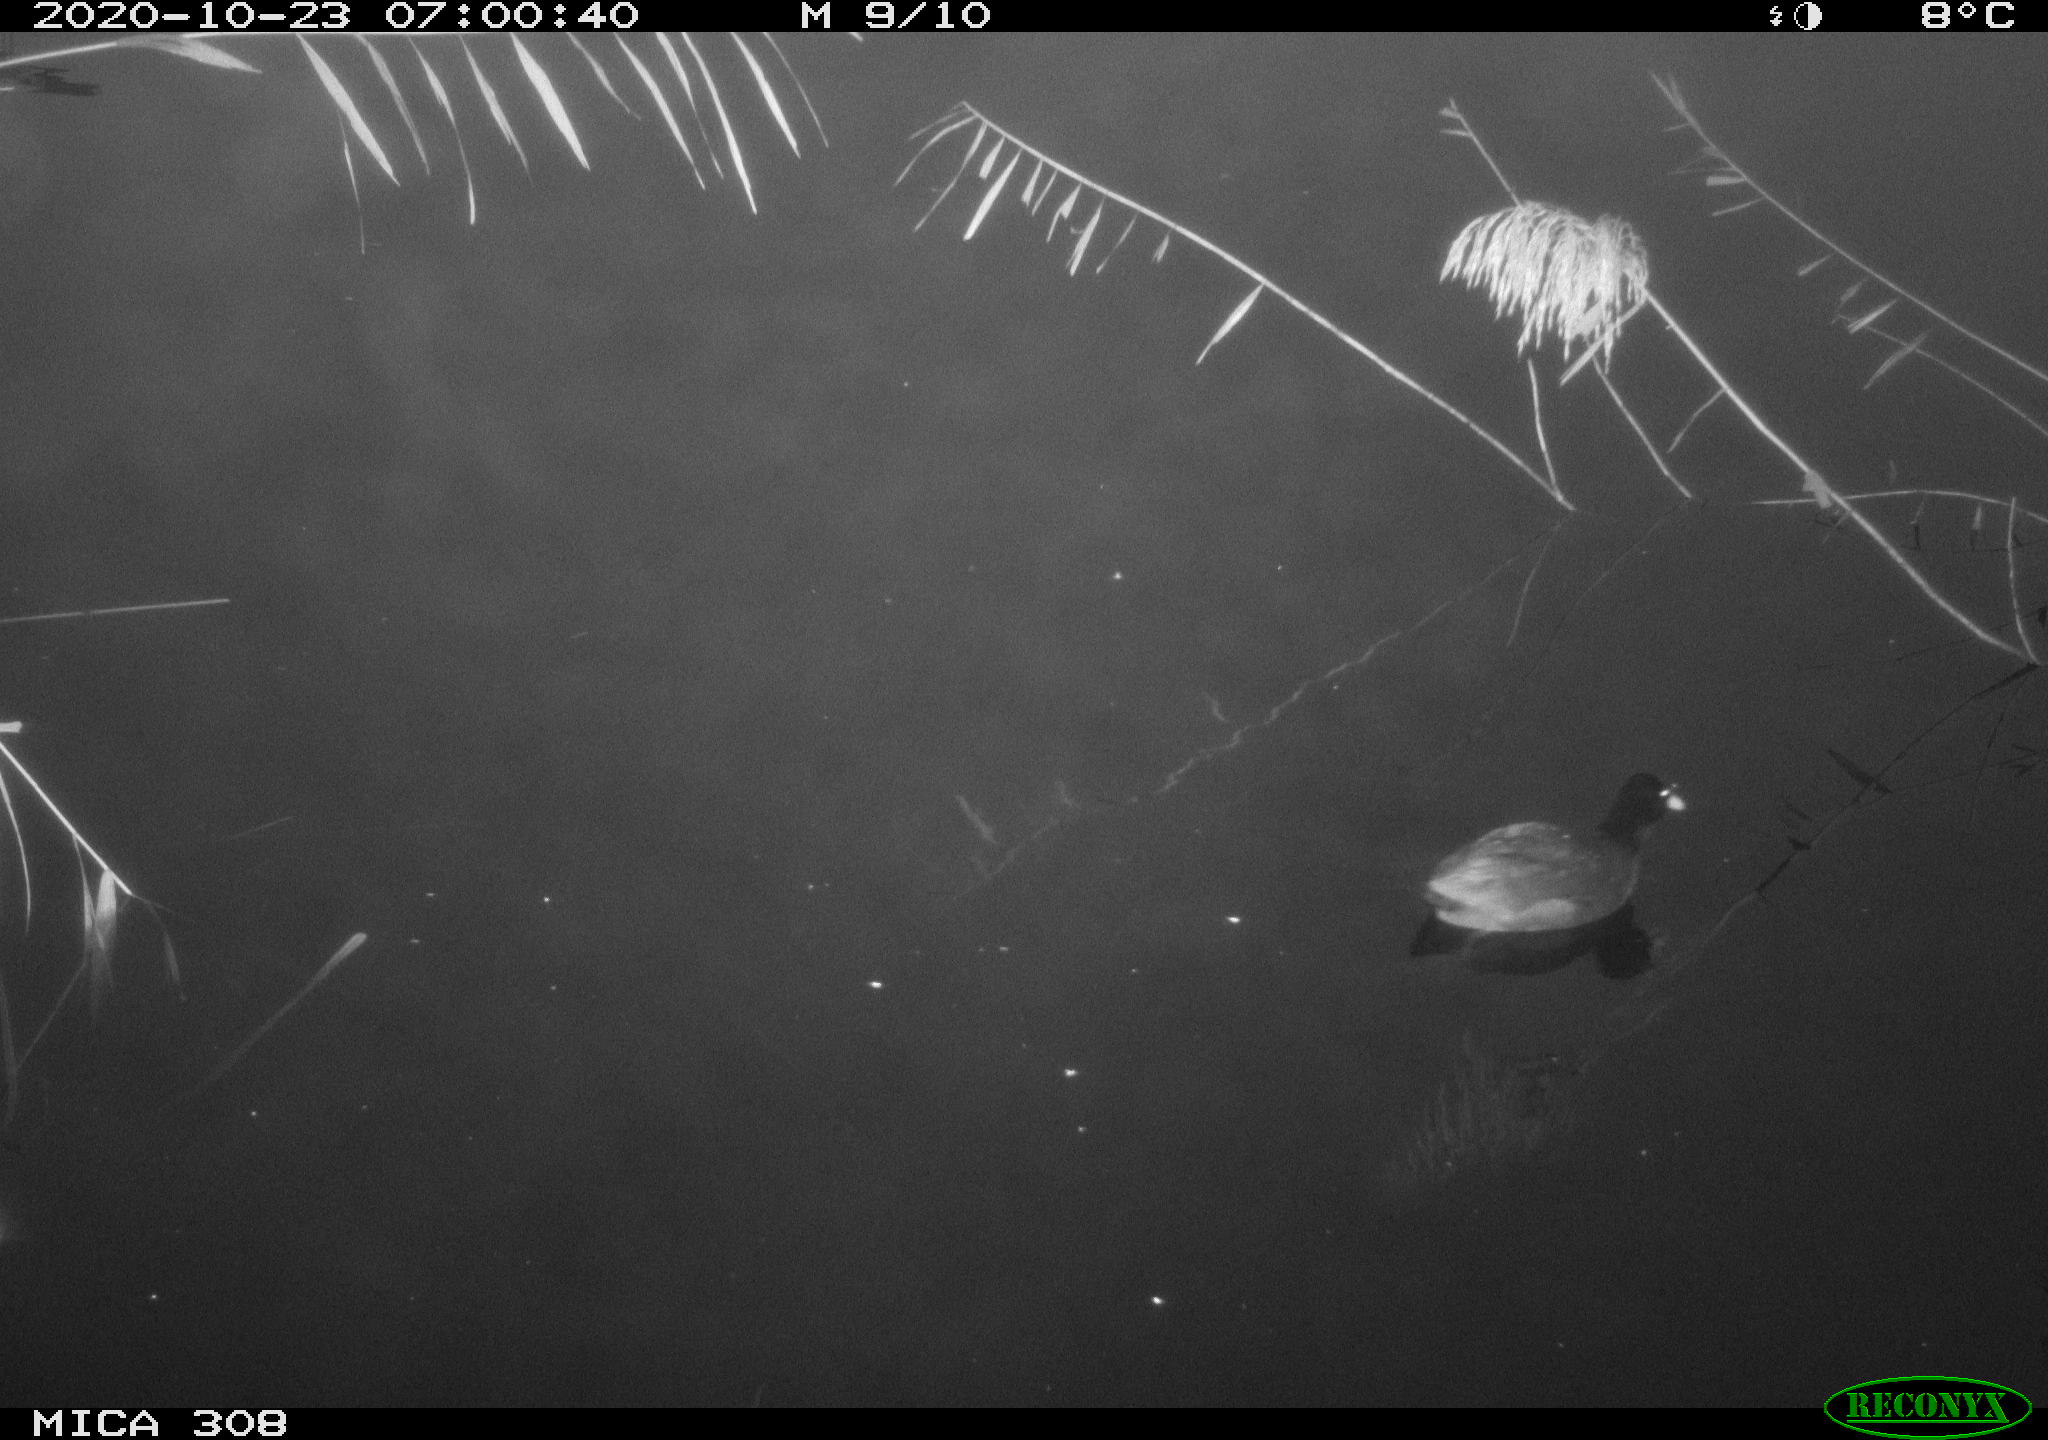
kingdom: Animalia
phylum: Chordata
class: Aves
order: Gruiformes
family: Rallidae
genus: Fulica
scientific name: Fulica atra
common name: Eurasian coot
